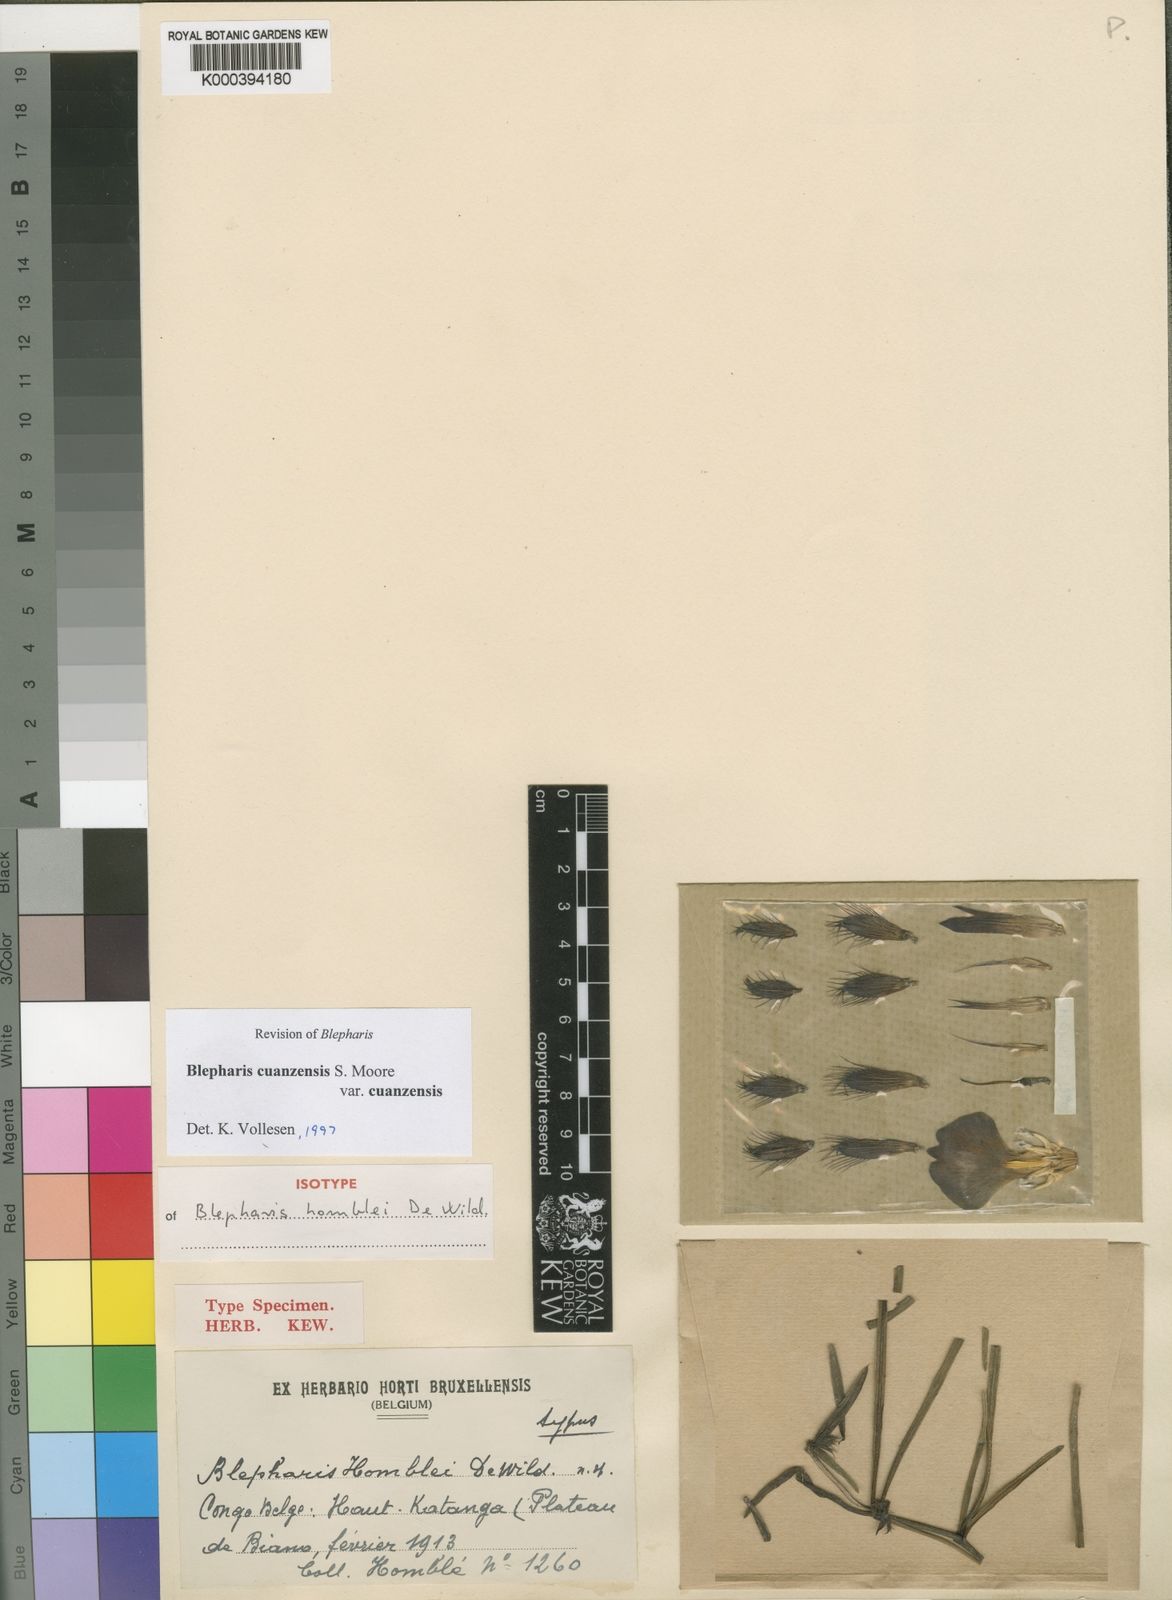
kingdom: Plantae
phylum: Tracheophyta
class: Magnoliopsida
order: Lamiales
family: Acanthaceae
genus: Blepharis
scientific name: Blepharis cuanzensis
